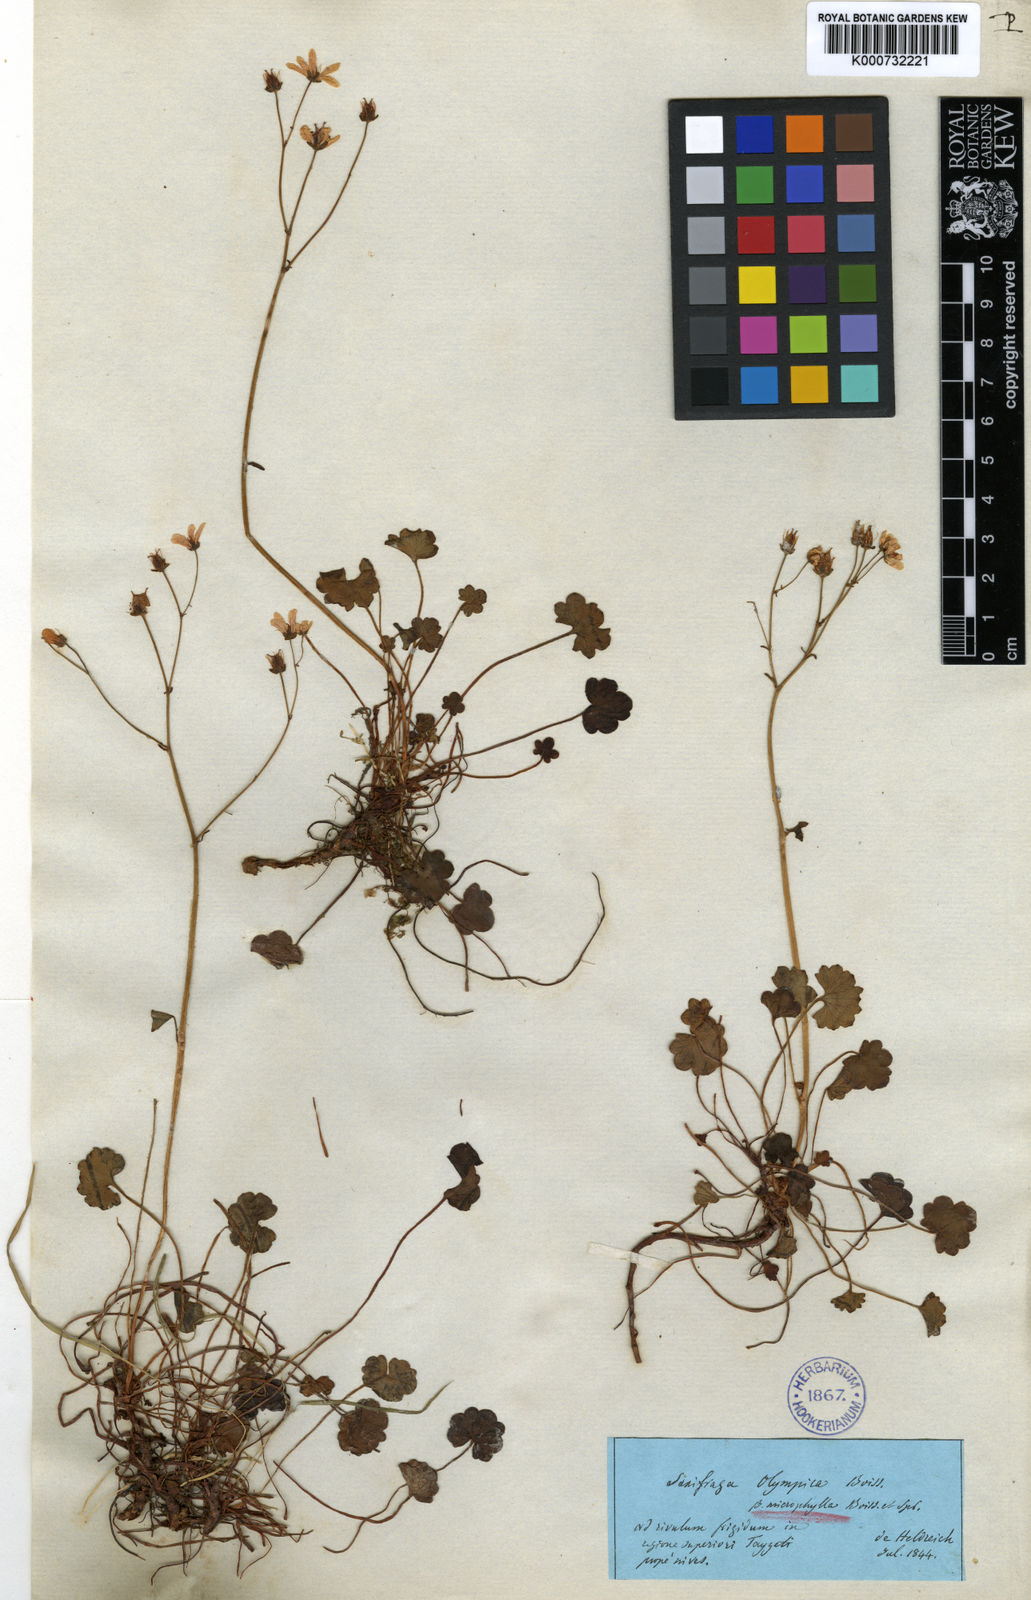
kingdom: Plantae
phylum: Tracheophyta
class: Magnoliopsida
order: Saxifragales
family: Saxifragaceae
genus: Saxifraga
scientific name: Saxifraga taygetea
